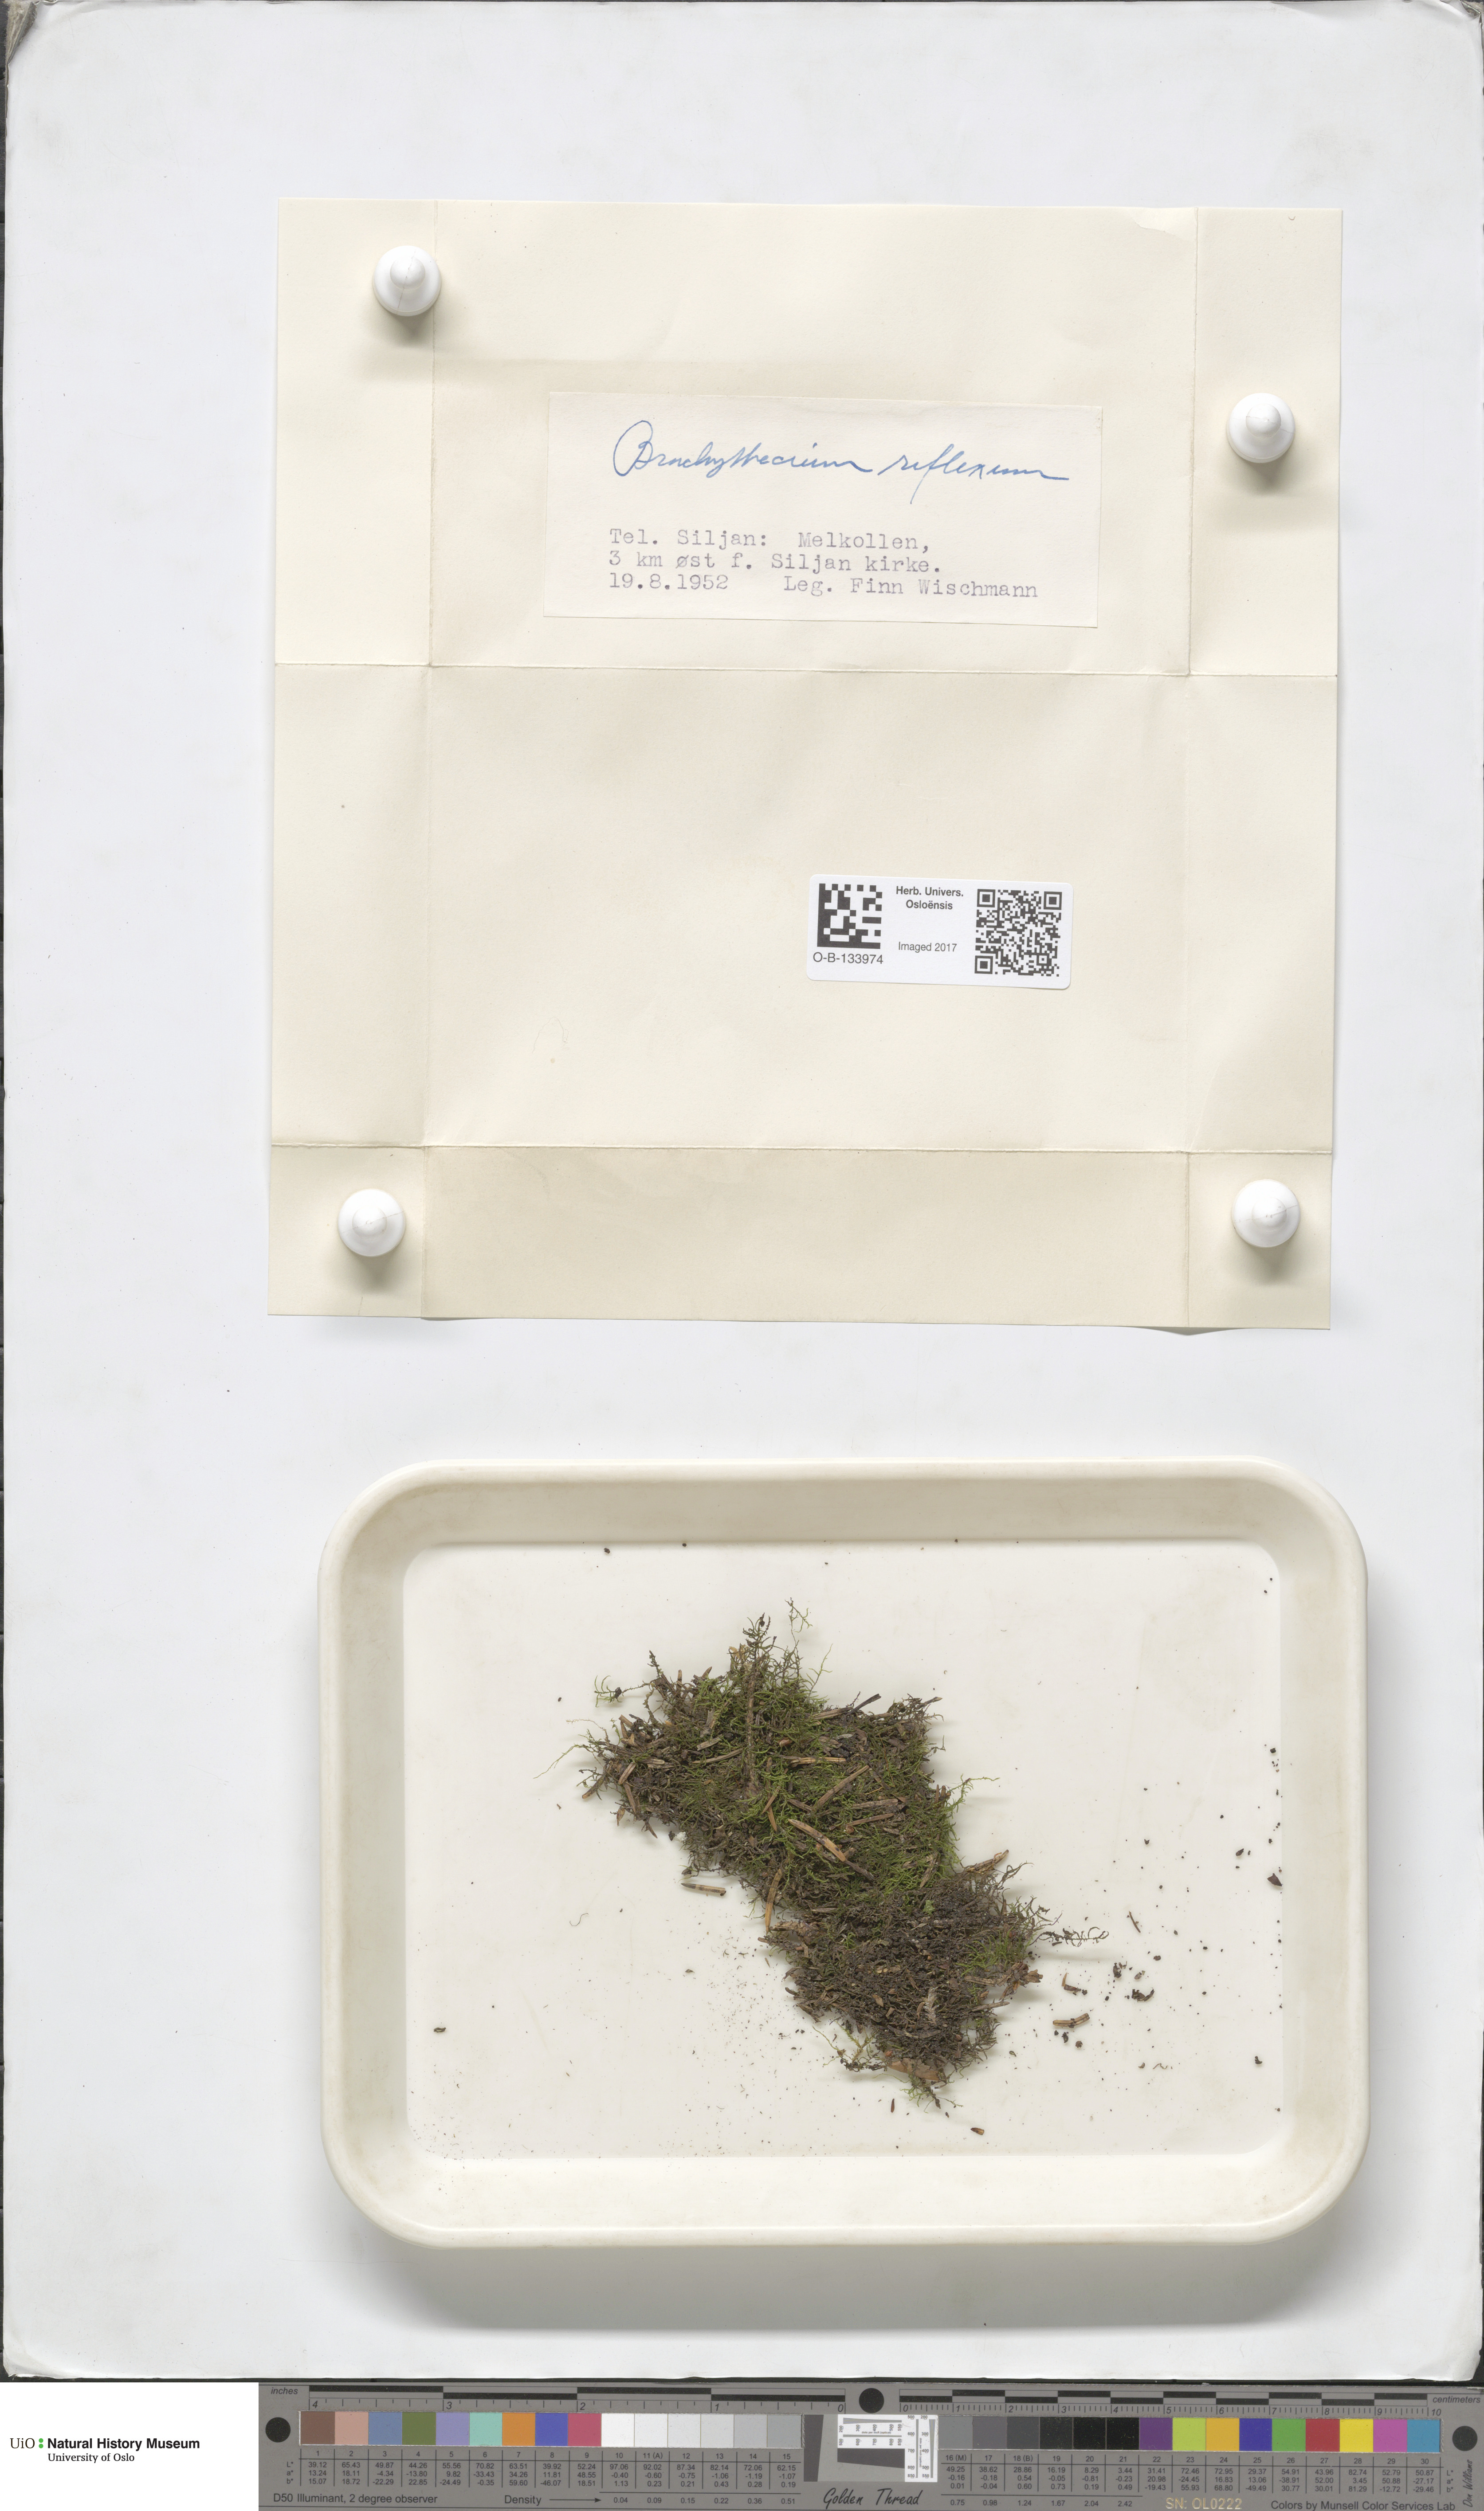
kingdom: Plantae
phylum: Bryophyta
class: Bryopsida
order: Hypnales
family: Brachytheciaceae
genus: Sciuro-hypnum
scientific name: Sciuro-hypnum reflexum
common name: Reflexed feather-moss
